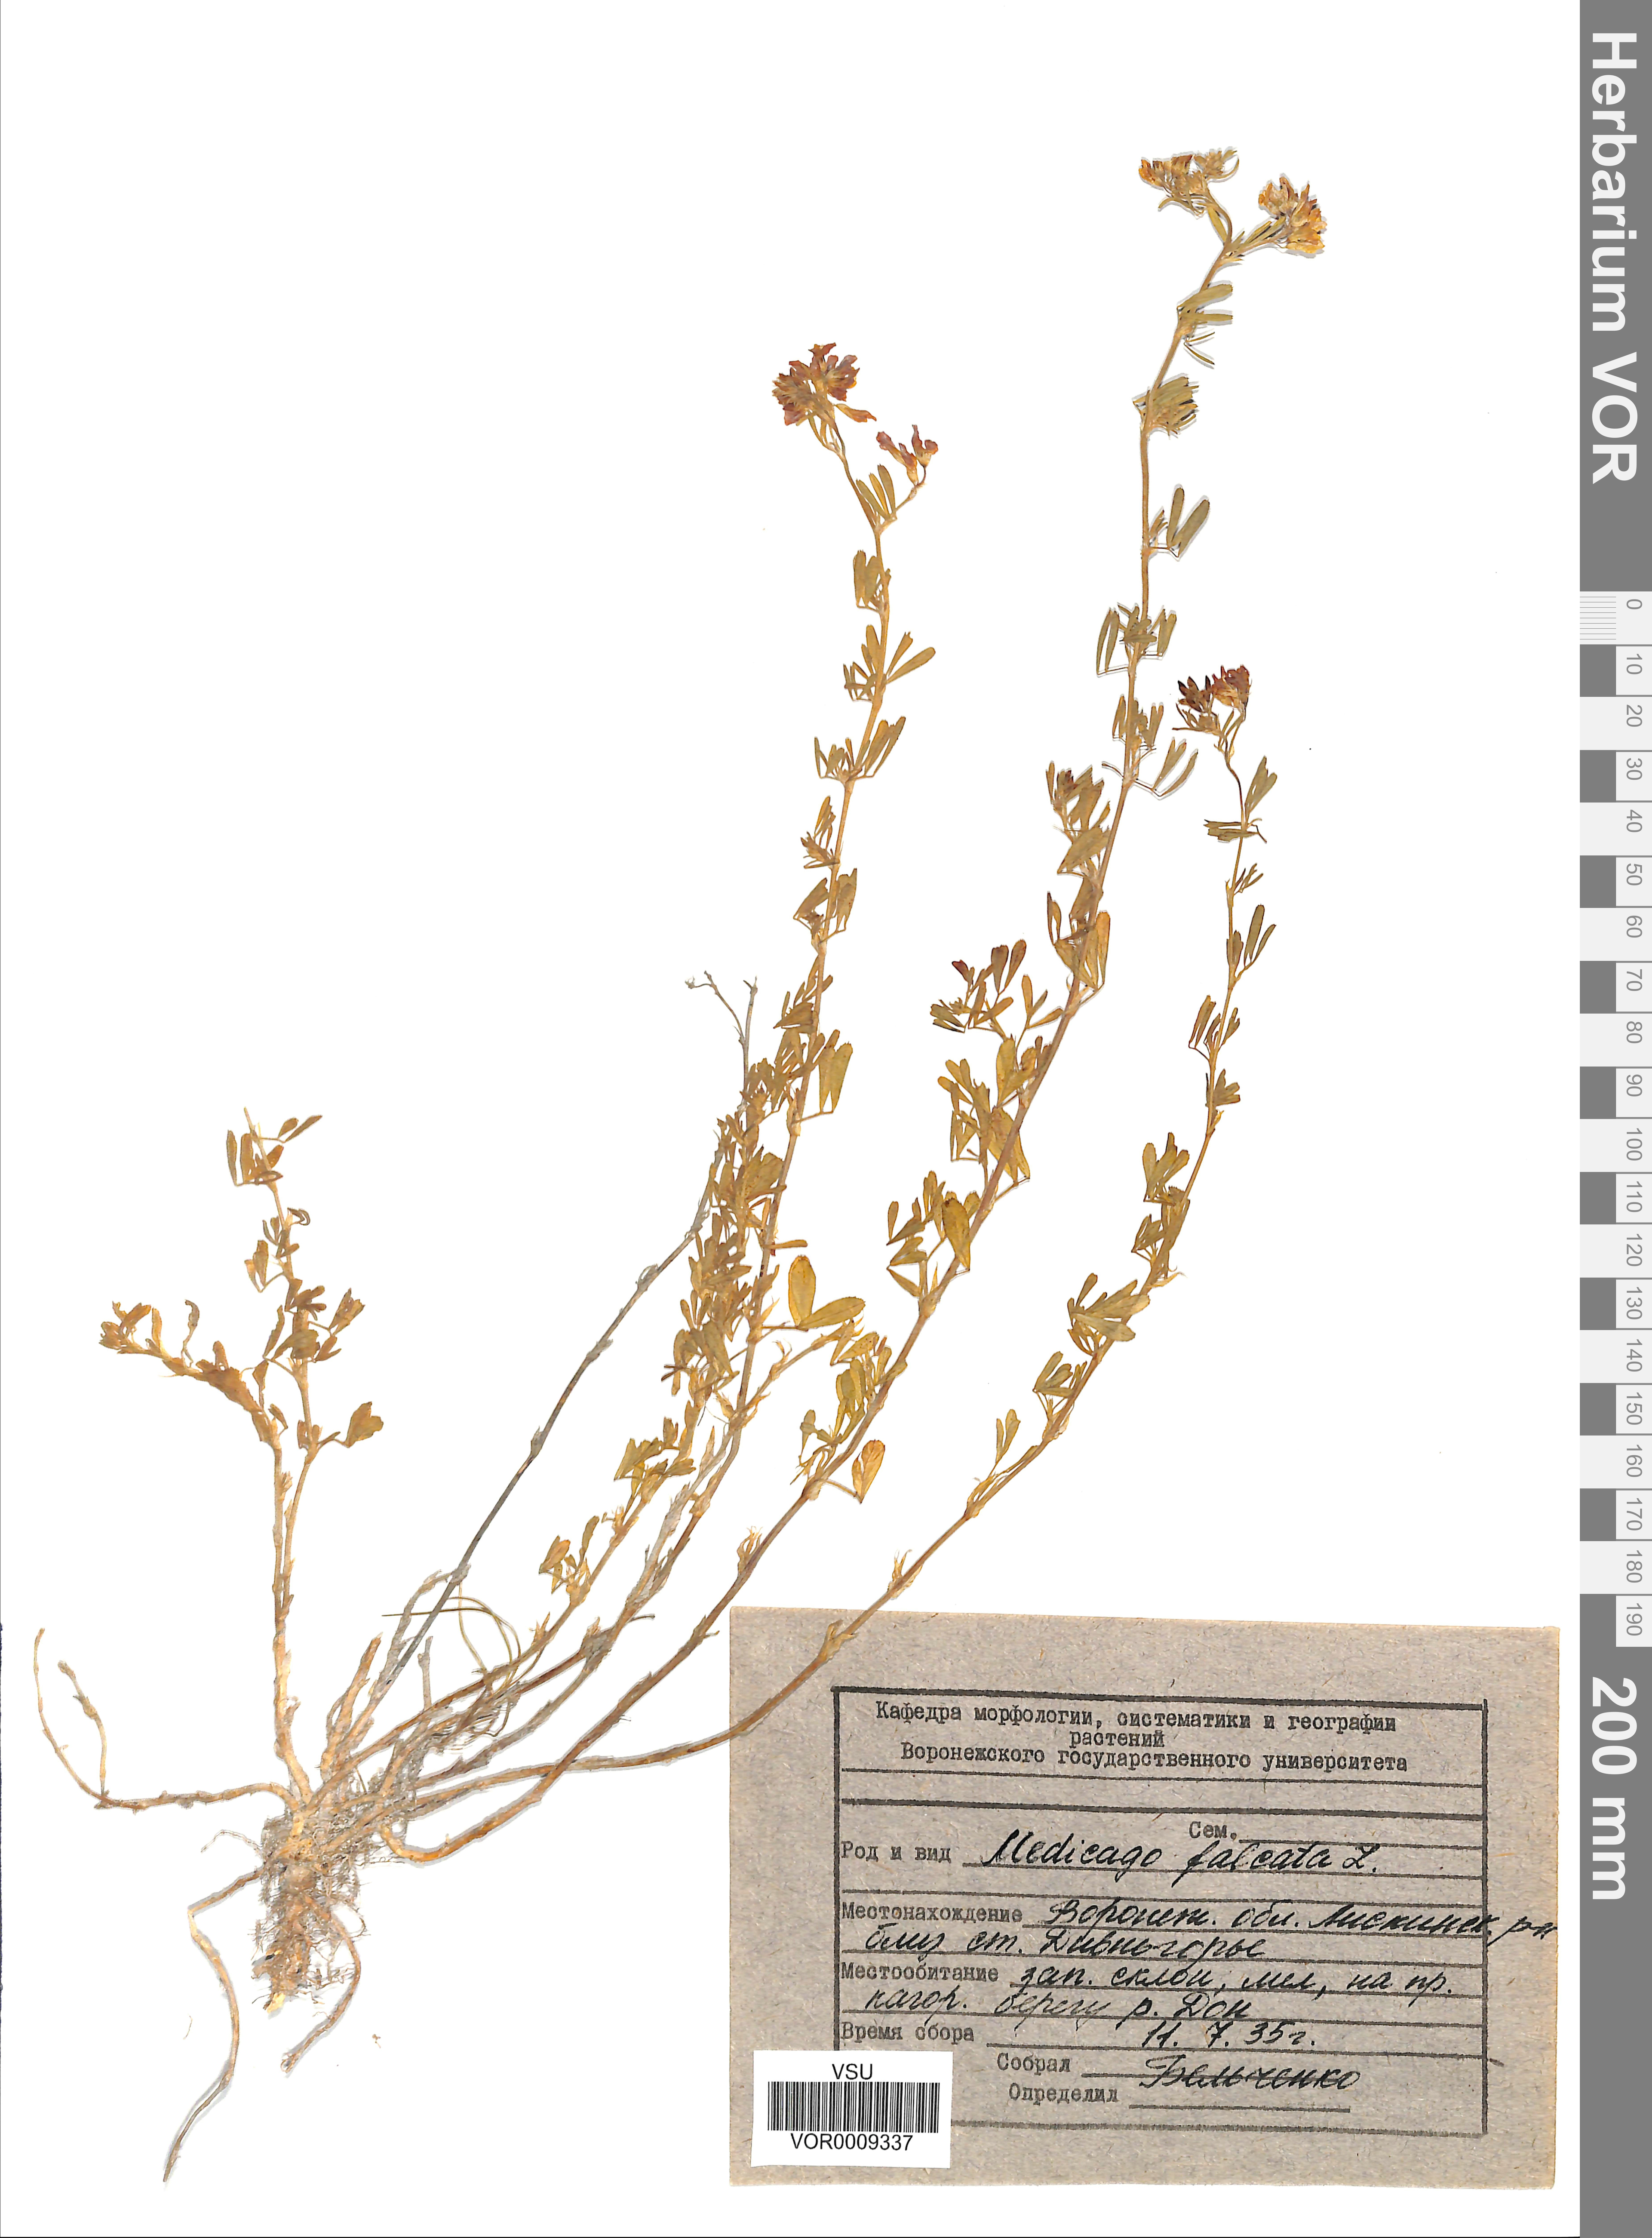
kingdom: Plantae
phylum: Tracheophyta
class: Magnoliopsida
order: Fabales
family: Fabaceae
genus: Medicago
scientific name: Medicago falcata
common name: Sickle medick
